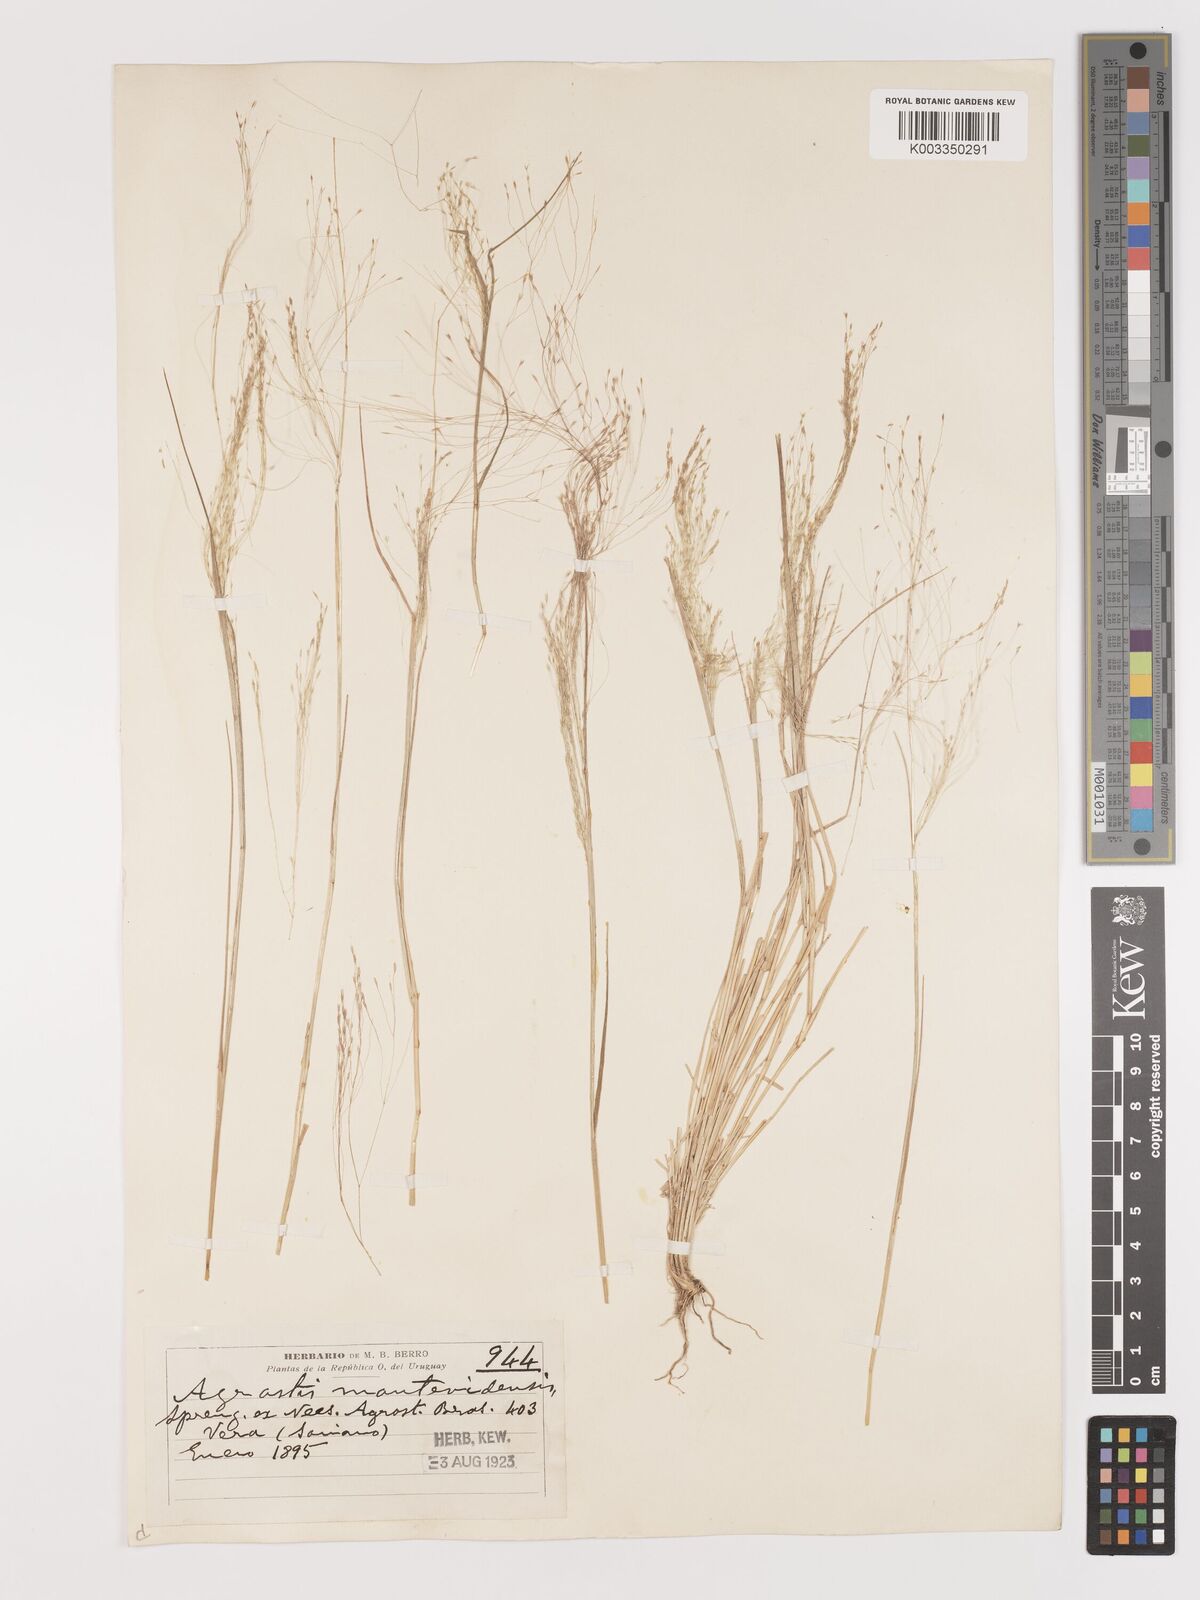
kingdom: Plantae
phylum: Tracheophyta
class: Liliopsida
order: Poales
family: Poaceae
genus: Agrostis
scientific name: Agrostis
